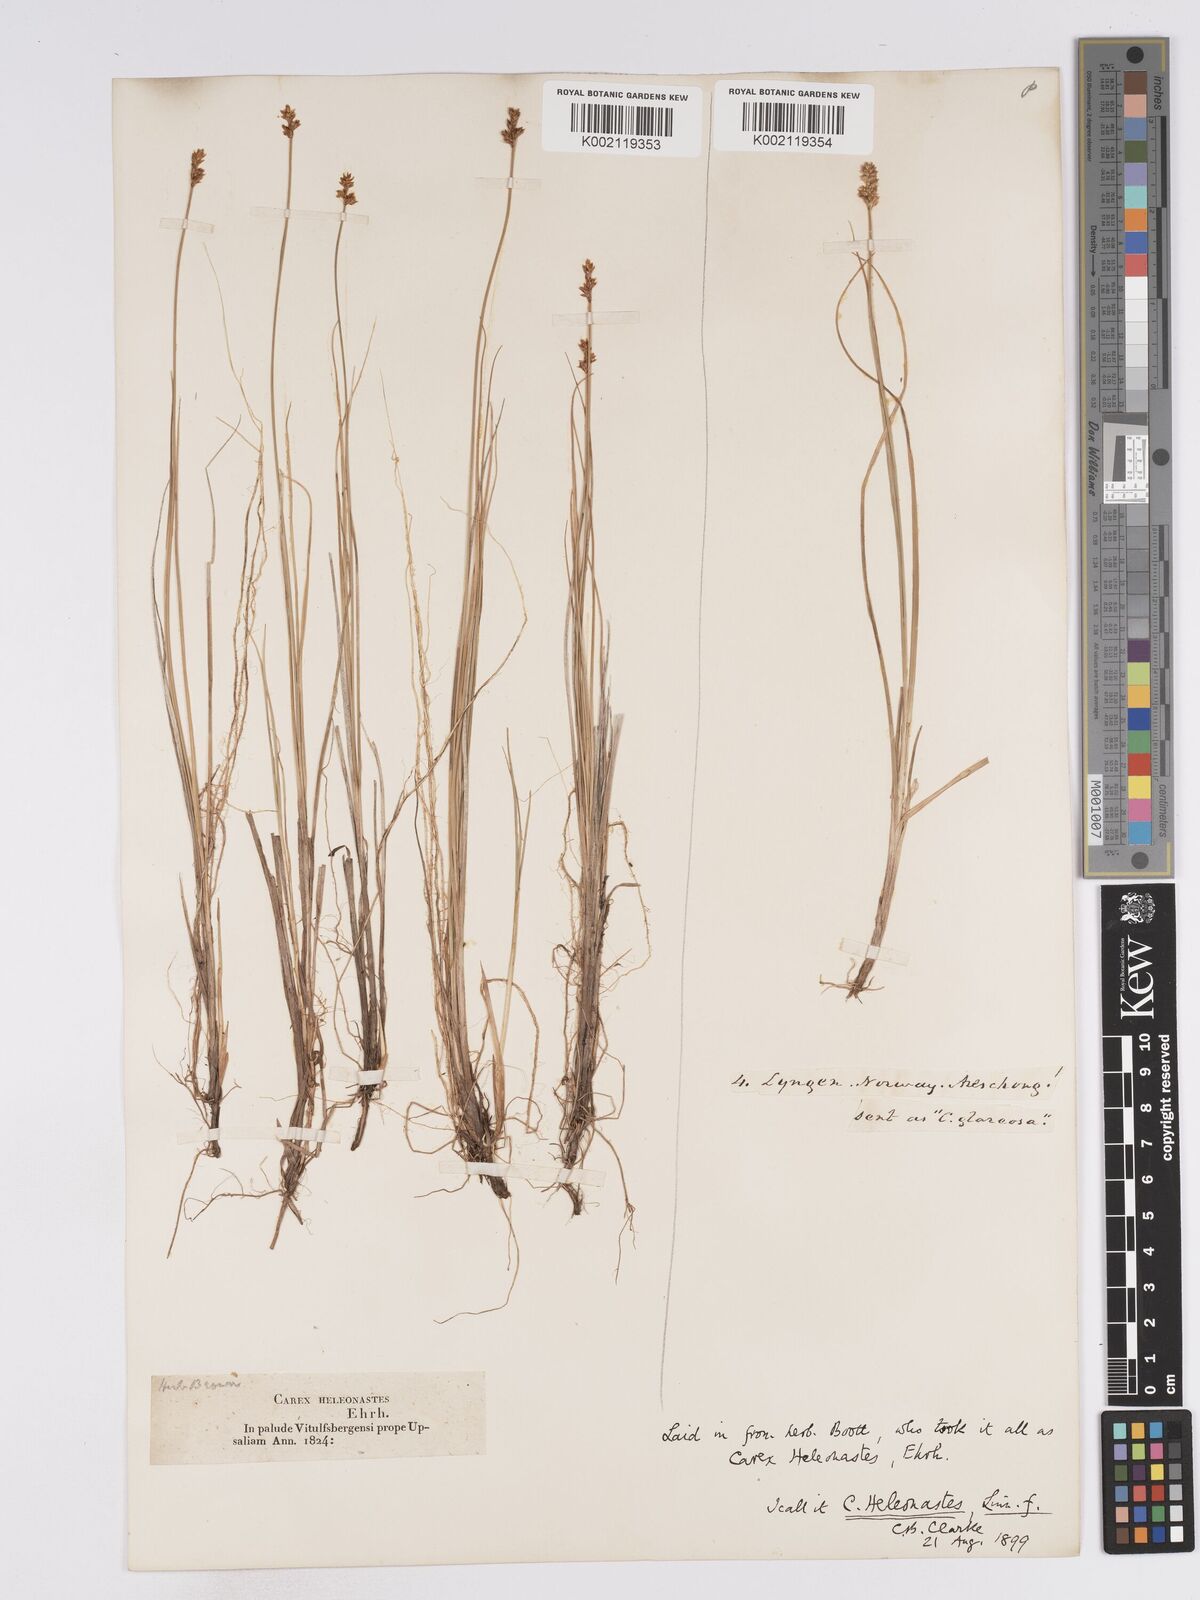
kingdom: Plantae
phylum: Tracheophyta
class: Liliopsida
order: Poales
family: Cyperaceae
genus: Carex
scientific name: Carex heleonastes
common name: Hudson bay sedge
